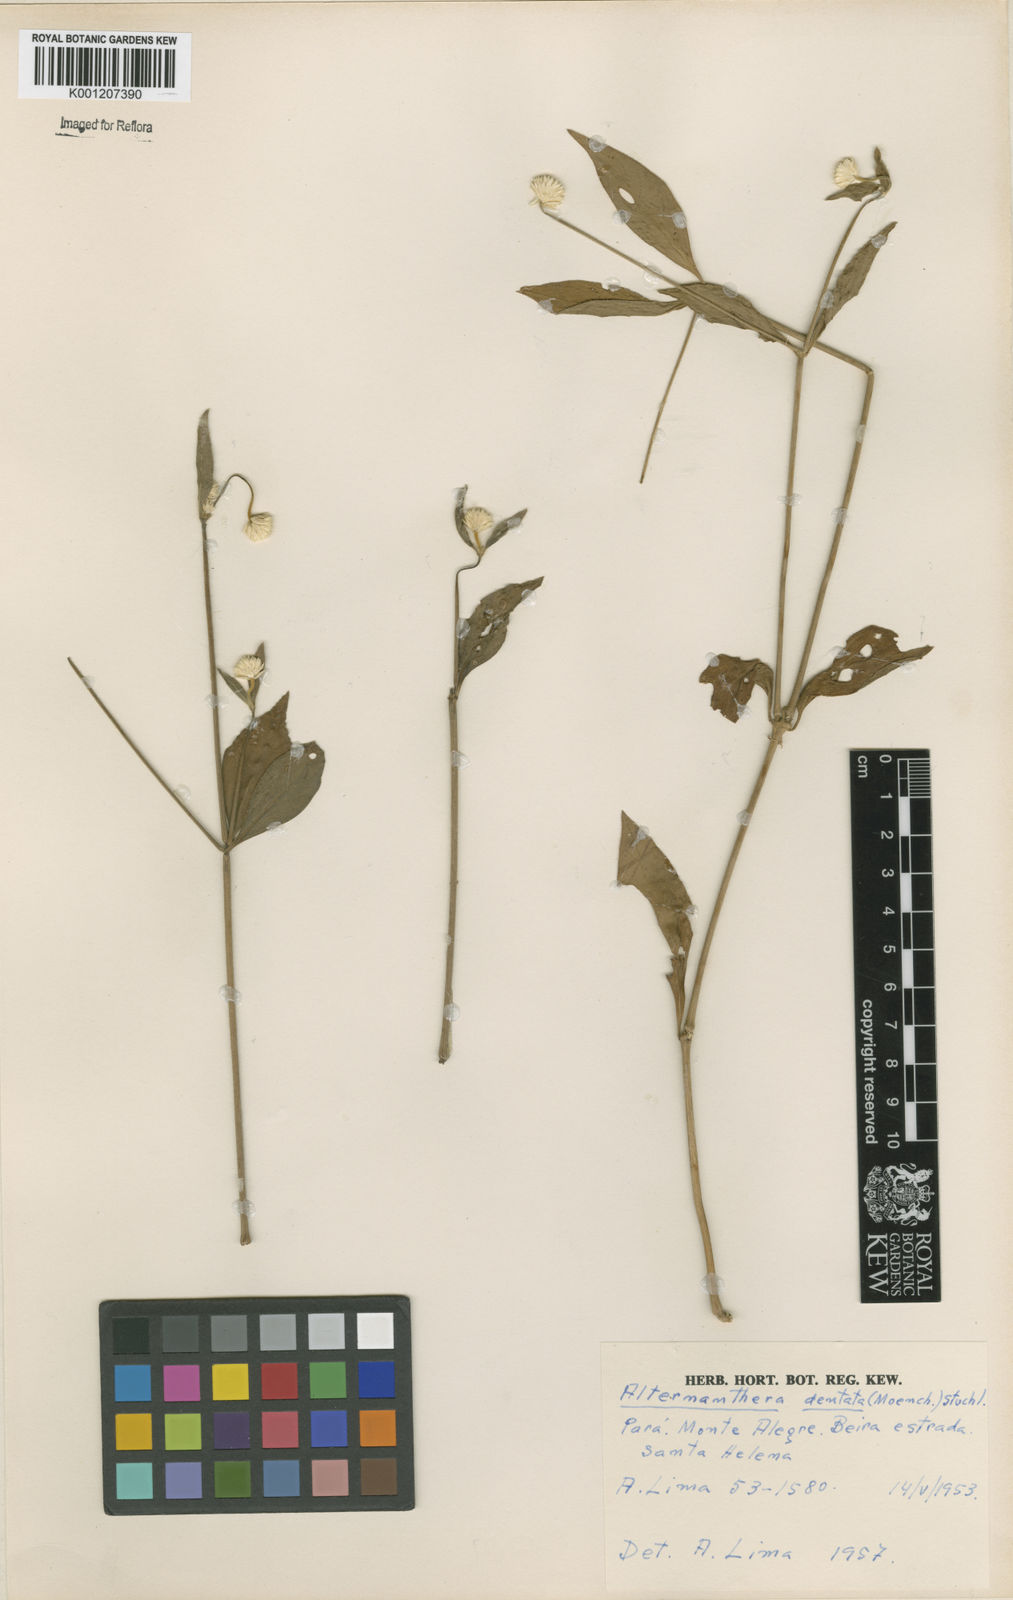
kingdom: Plantae
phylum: Tracheophyta
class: Magnoliopsida
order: Caryophyllales
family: Amaranthaceae
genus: Alternanthera
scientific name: Alternanthera
